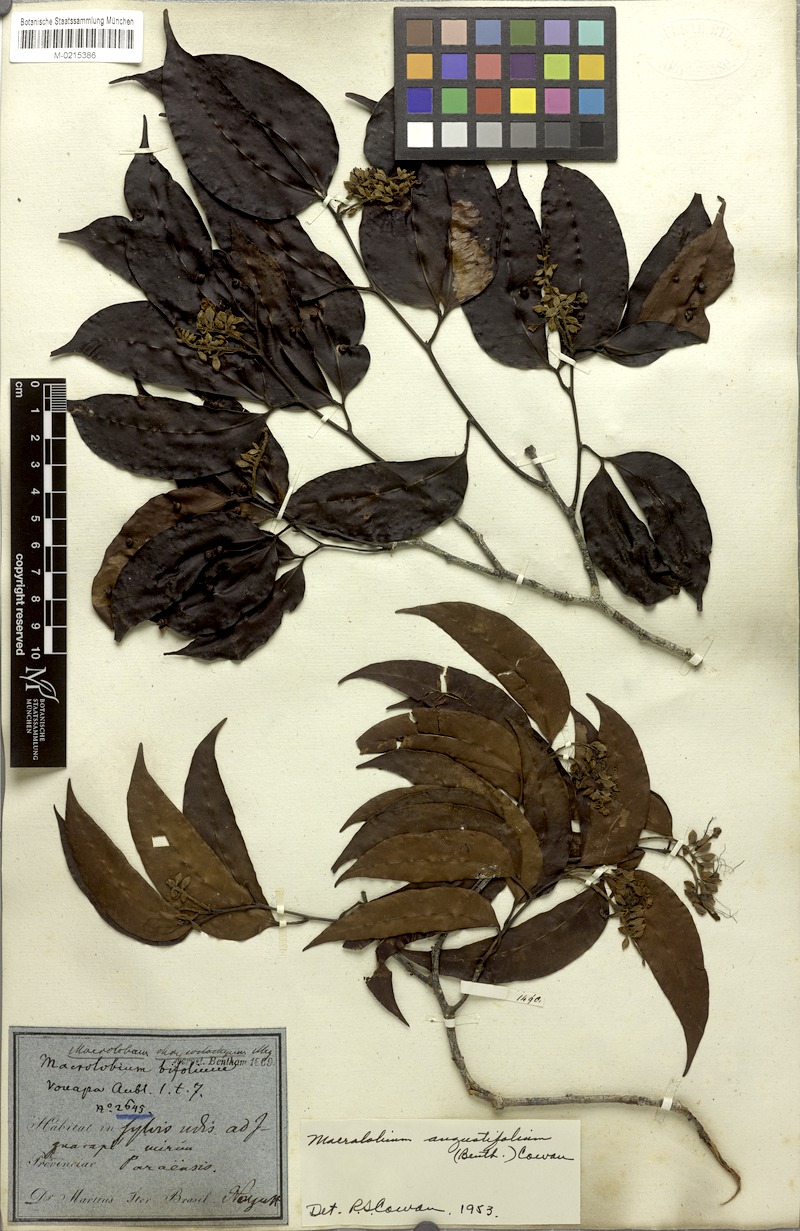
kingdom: Plantae
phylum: Tracheophyta
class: Magnoliopsida
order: Fabales
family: Fabaceae
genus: Macrolobium
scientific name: Macrolobium angustifolium
